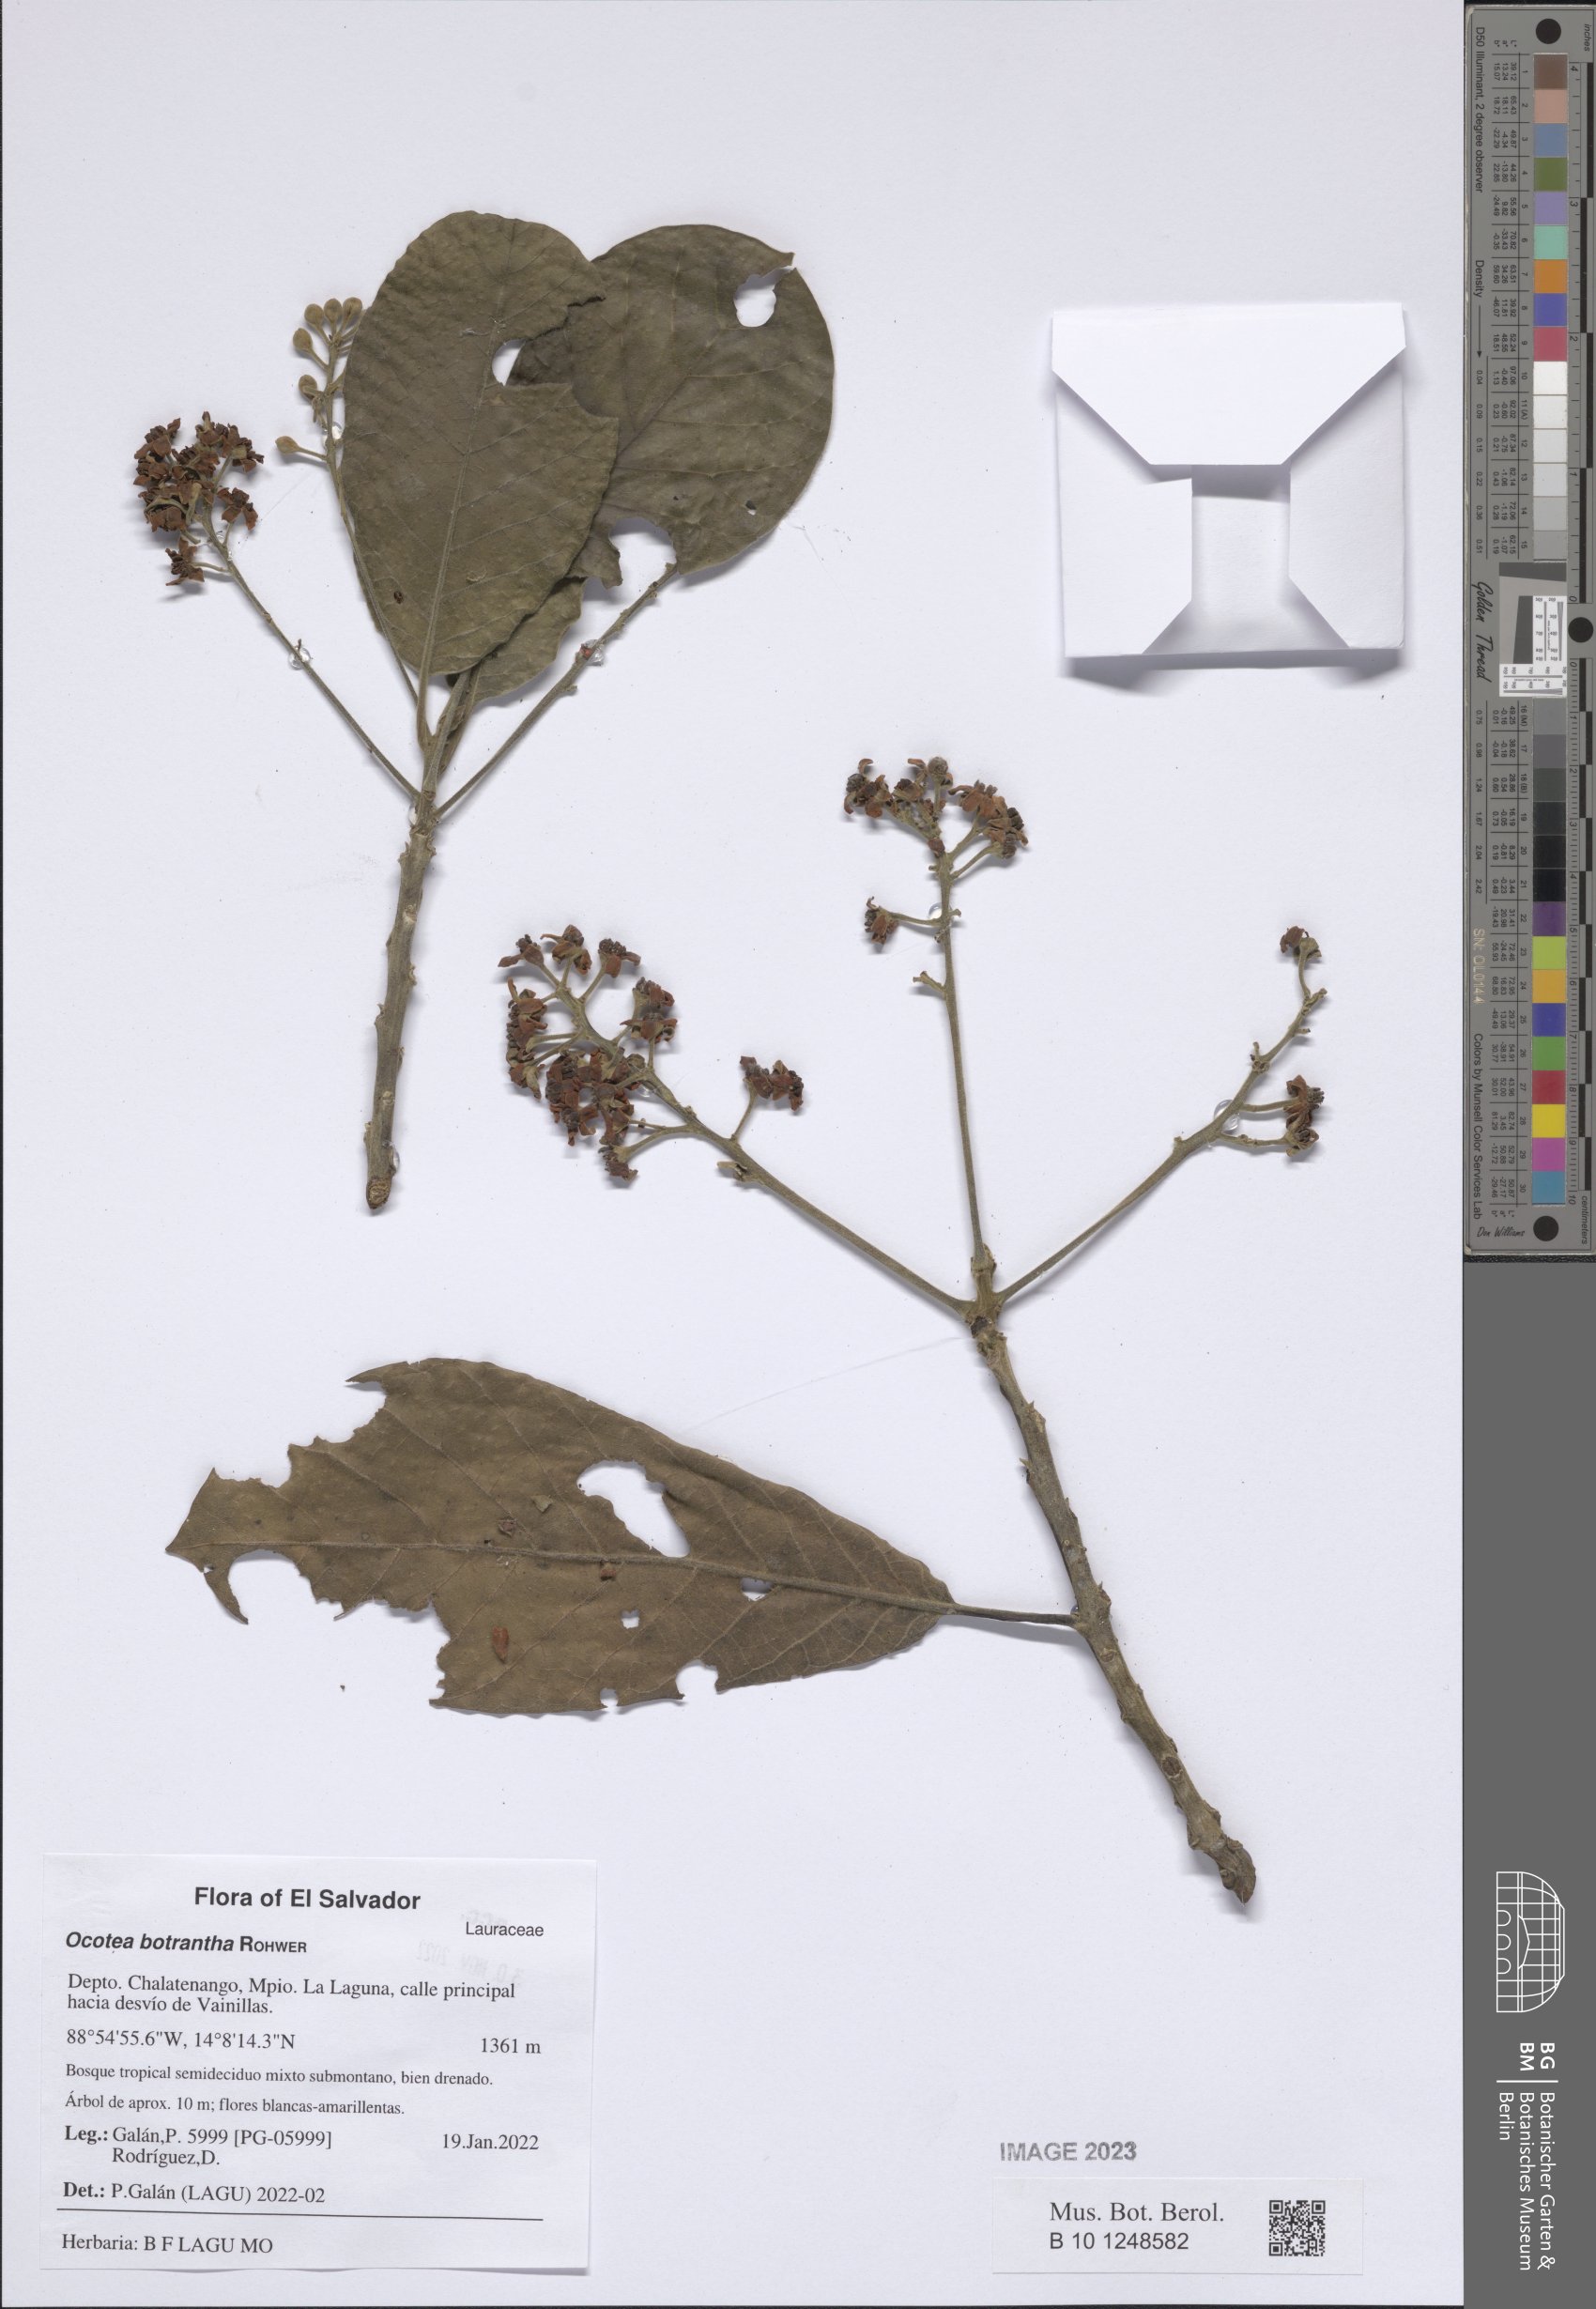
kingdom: Plantae
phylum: Tracheophyta
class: Magnoliopsida
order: Laurales
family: Lauraceae
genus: Ocotea
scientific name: Ocotea botrantha
